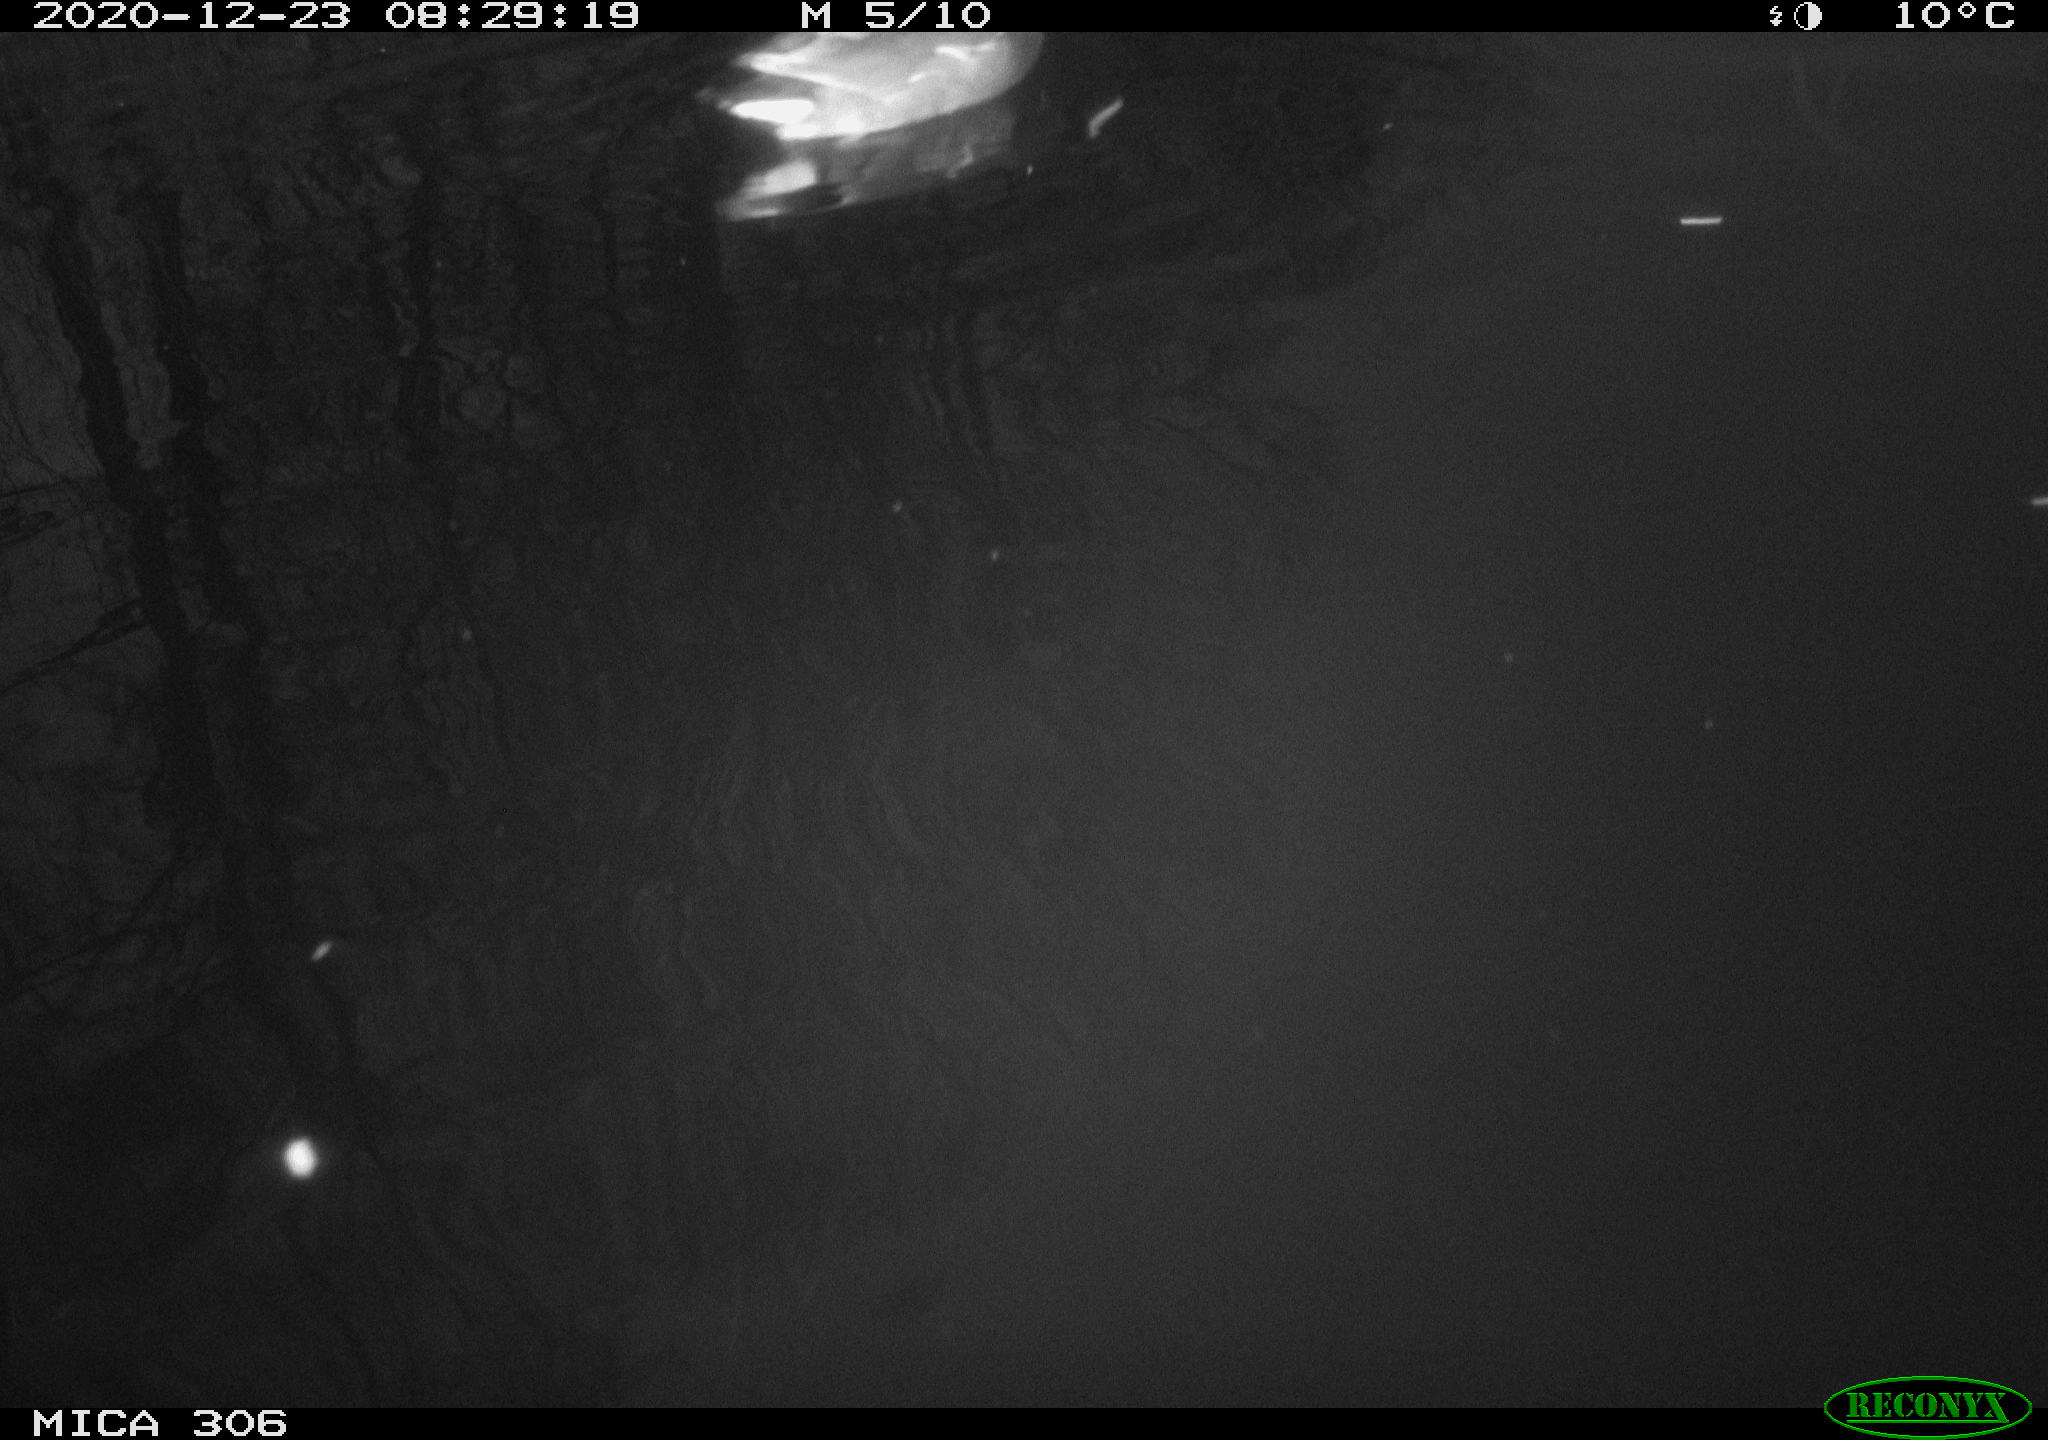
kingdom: Animalia
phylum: Chordata
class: Aves
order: Gruiformes
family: Rallidae
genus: Gallinula
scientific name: Gallinula chloropus
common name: Common moorhen
